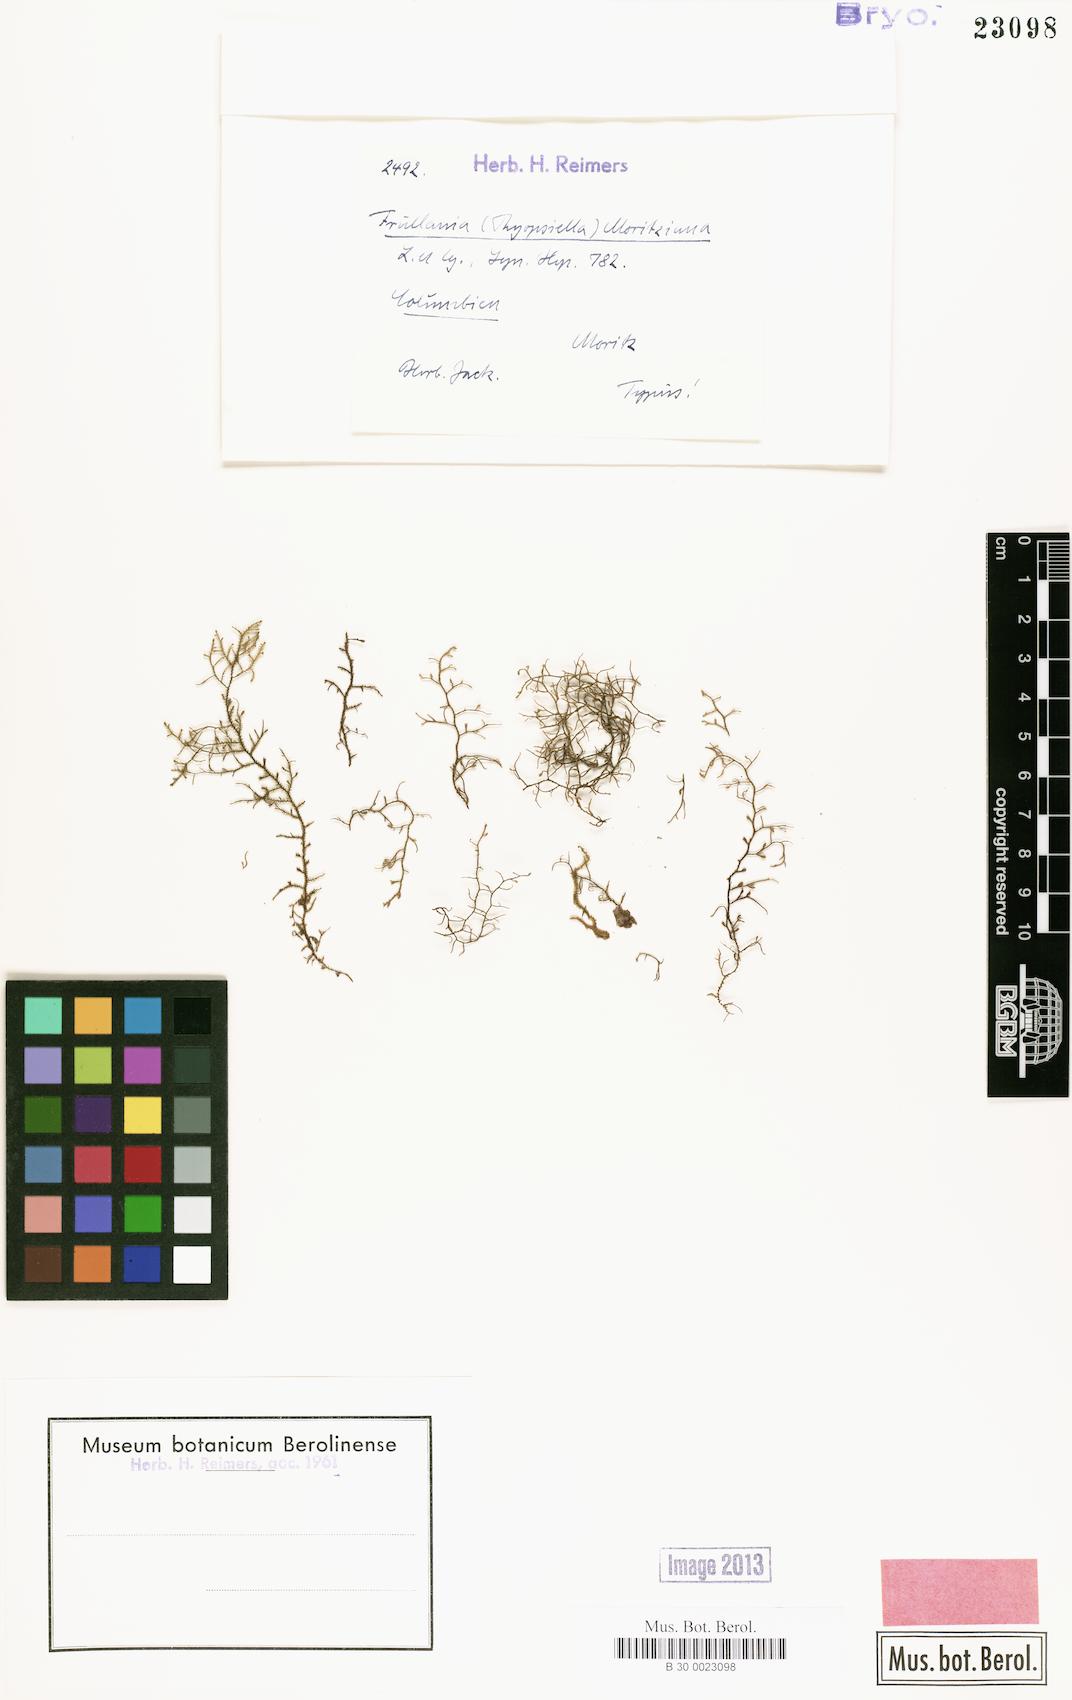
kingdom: Plantae
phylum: Marchantiophyta
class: Jungermanniopsida
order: Porellales
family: Frullaniaceae
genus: Frullania
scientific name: Frullania moritziana
